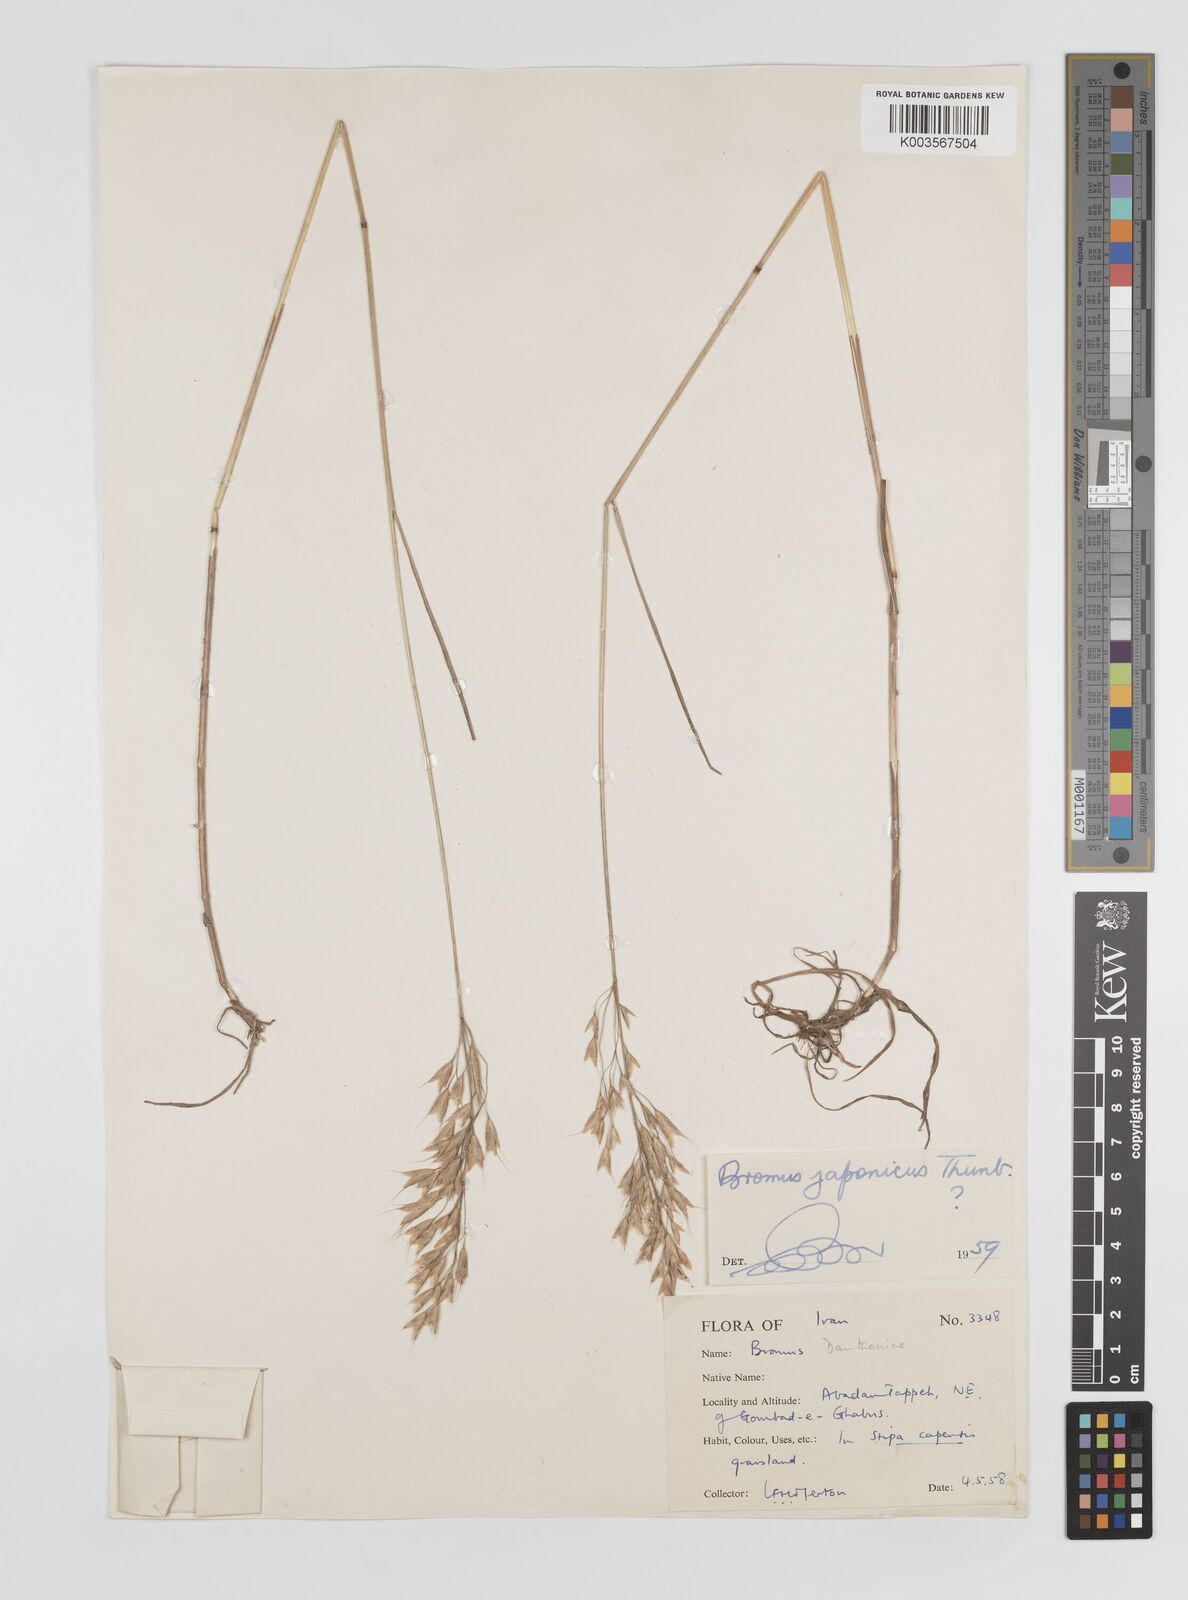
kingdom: Plantae
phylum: Tracheophyta
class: Liliopsida
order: Poales
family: Poaceae
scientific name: Poaceae
